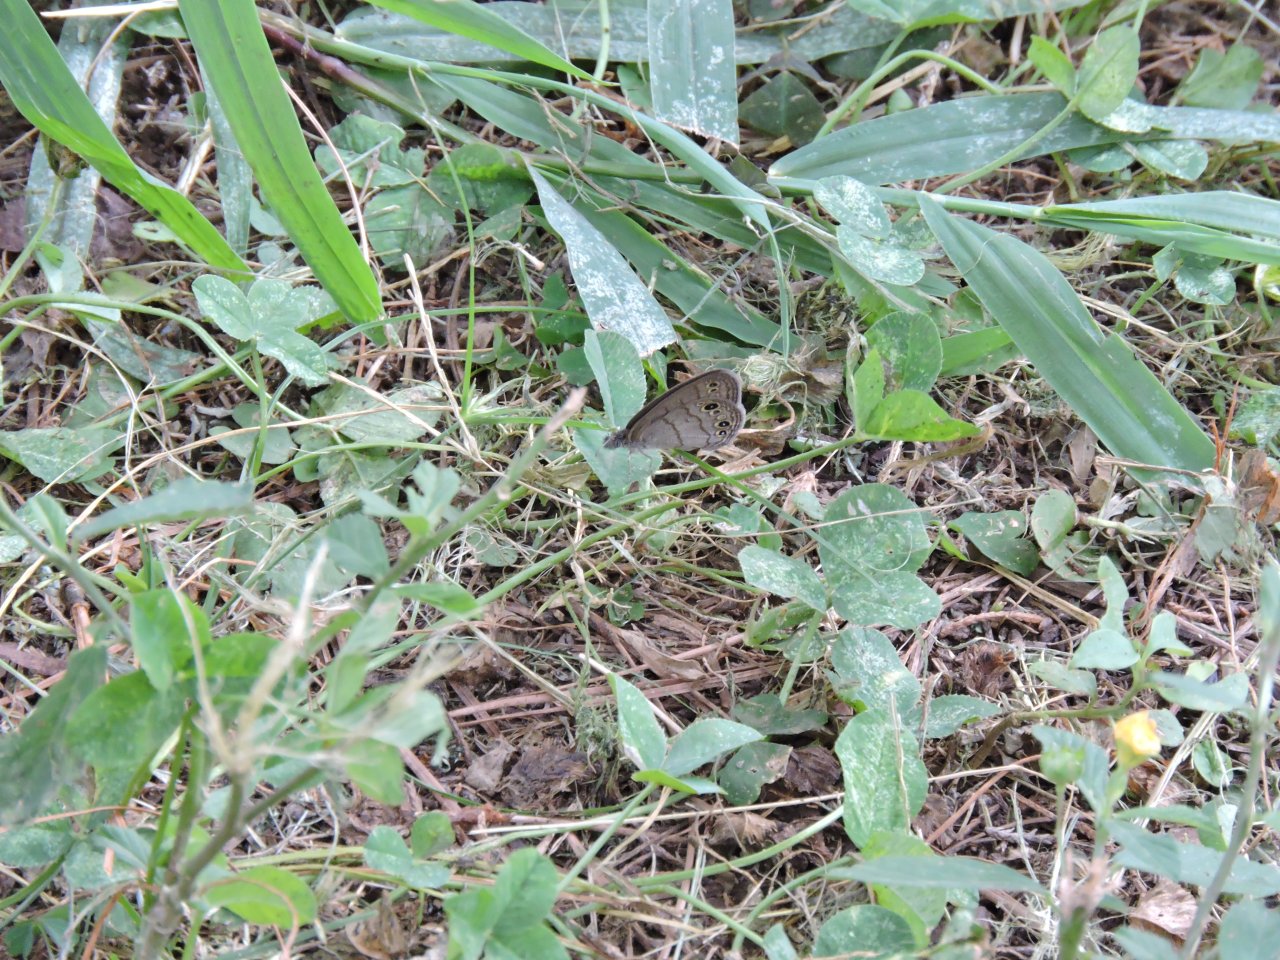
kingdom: Animalia
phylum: Arthropoda
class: Insecta
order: Lepidoptera
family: Nymphalidae
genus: Hermeuptychia
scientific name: Hermeuptychia hermes
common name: Carolina Satyr
